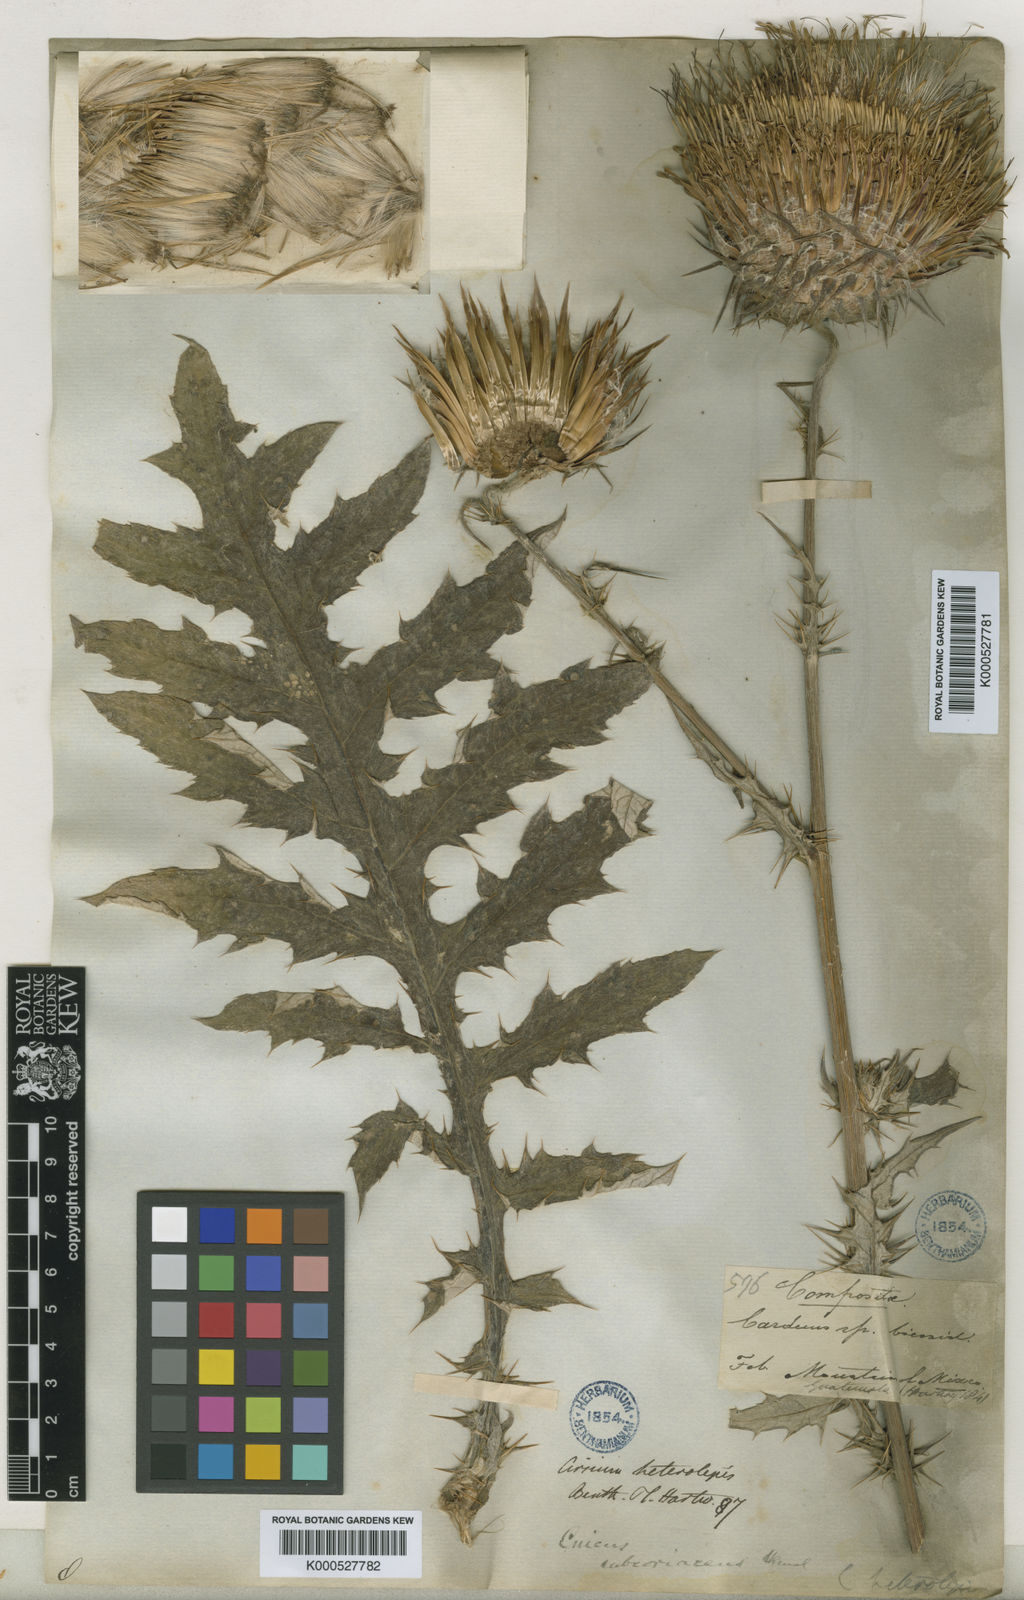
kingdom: Plantae
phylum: Tracheophyta
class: Magnoliopsida
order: Asterales
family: Asteraceae
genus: Cirsium
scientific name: Cirsium subcoriaceum
